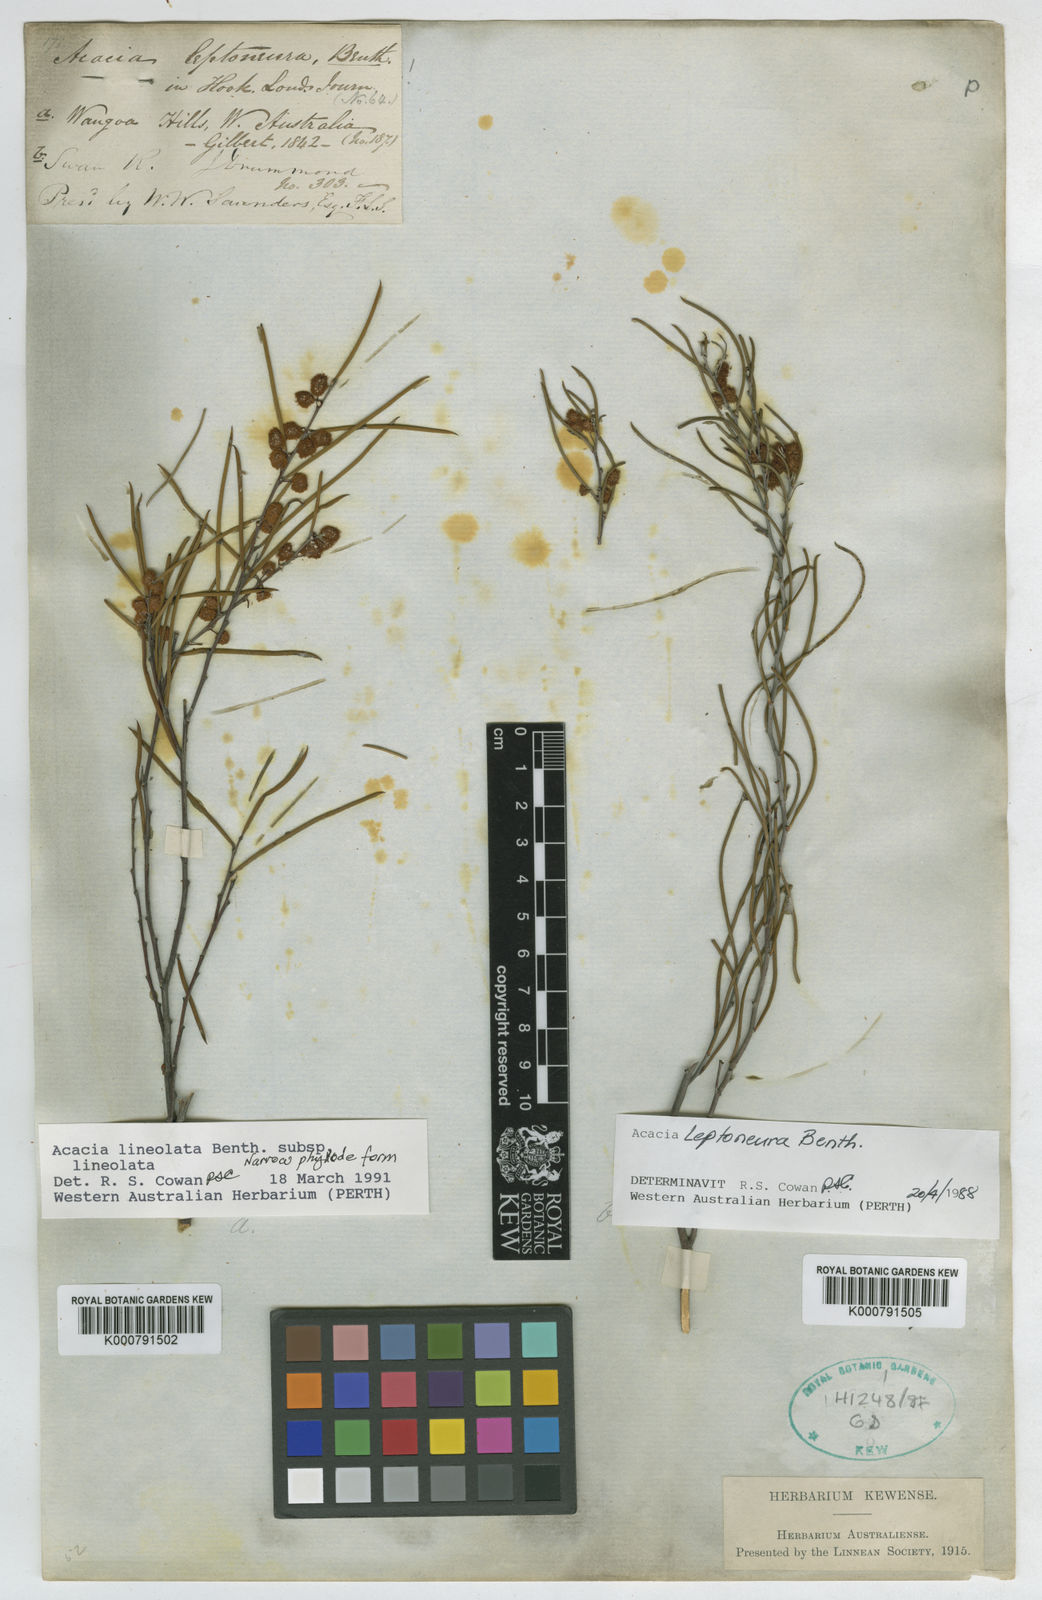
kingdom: Plantae
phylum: Tracheophyta
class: Magnoliopsida
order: Fabales
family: Fabaceae
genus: Acacia
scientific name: Acacia leptoneura
